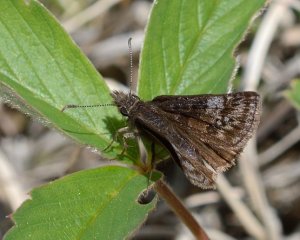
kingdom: Animalia
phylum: Arthropoda
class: Insecta
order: Lepidoptera
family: Hesperiidae
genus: Erynnis
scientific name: Erynnis icelus
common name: Dreamy Duskywing
